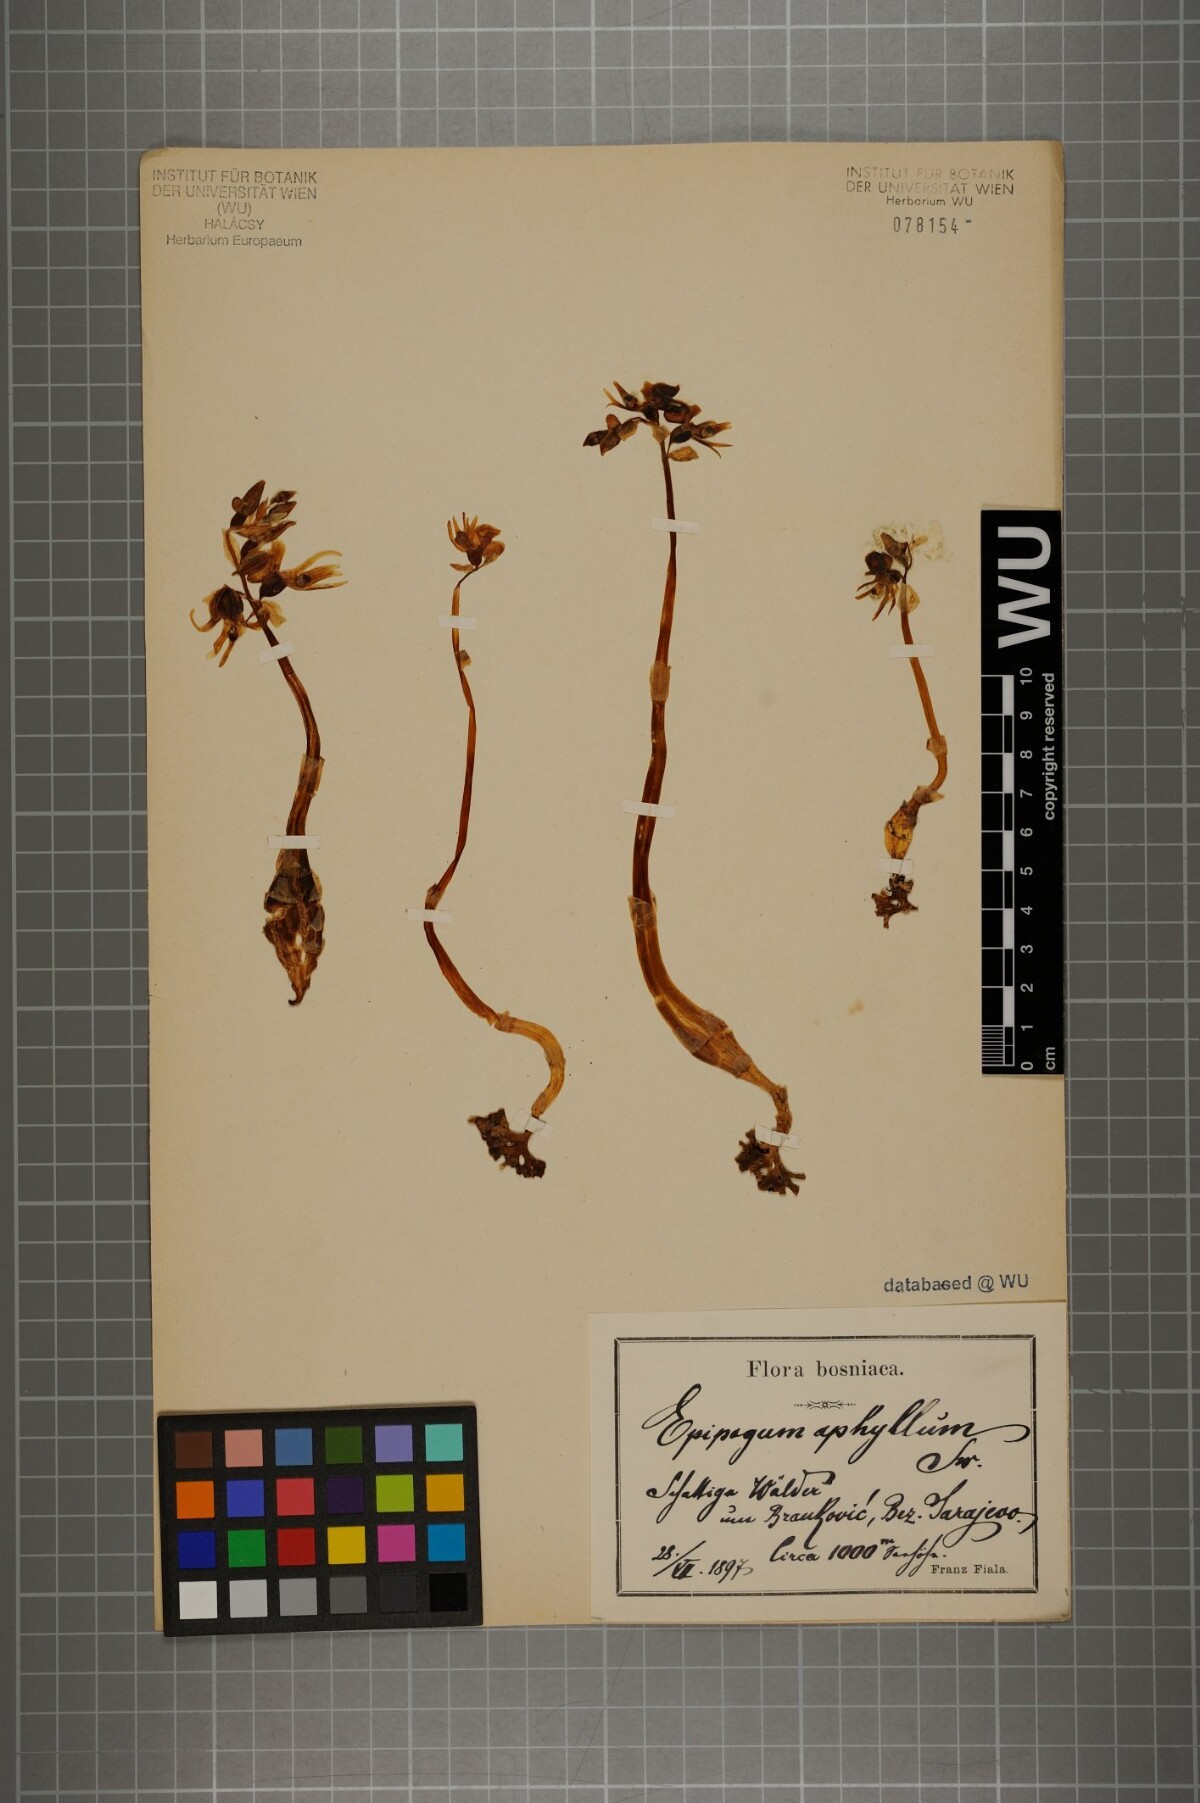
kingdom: Plantae
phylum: Tracheophyta
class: Liliopsida
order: Asparagales
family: Orchidaceae
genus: Epipogium
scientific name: Epipogium aphyllum
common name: Ghost orchid
